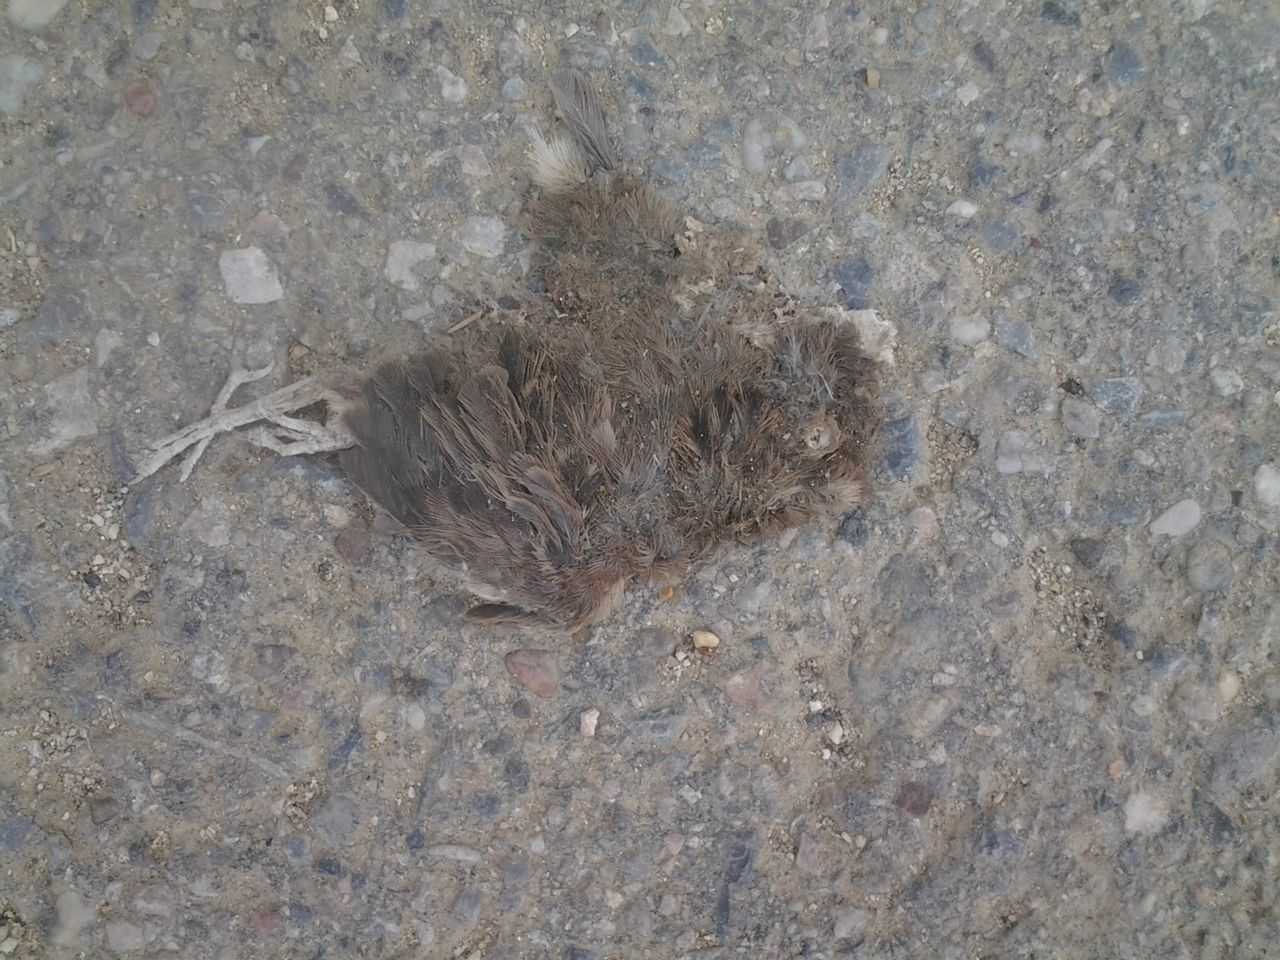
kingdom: Animalia
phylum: Chordata
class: Aves
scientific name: Aves
